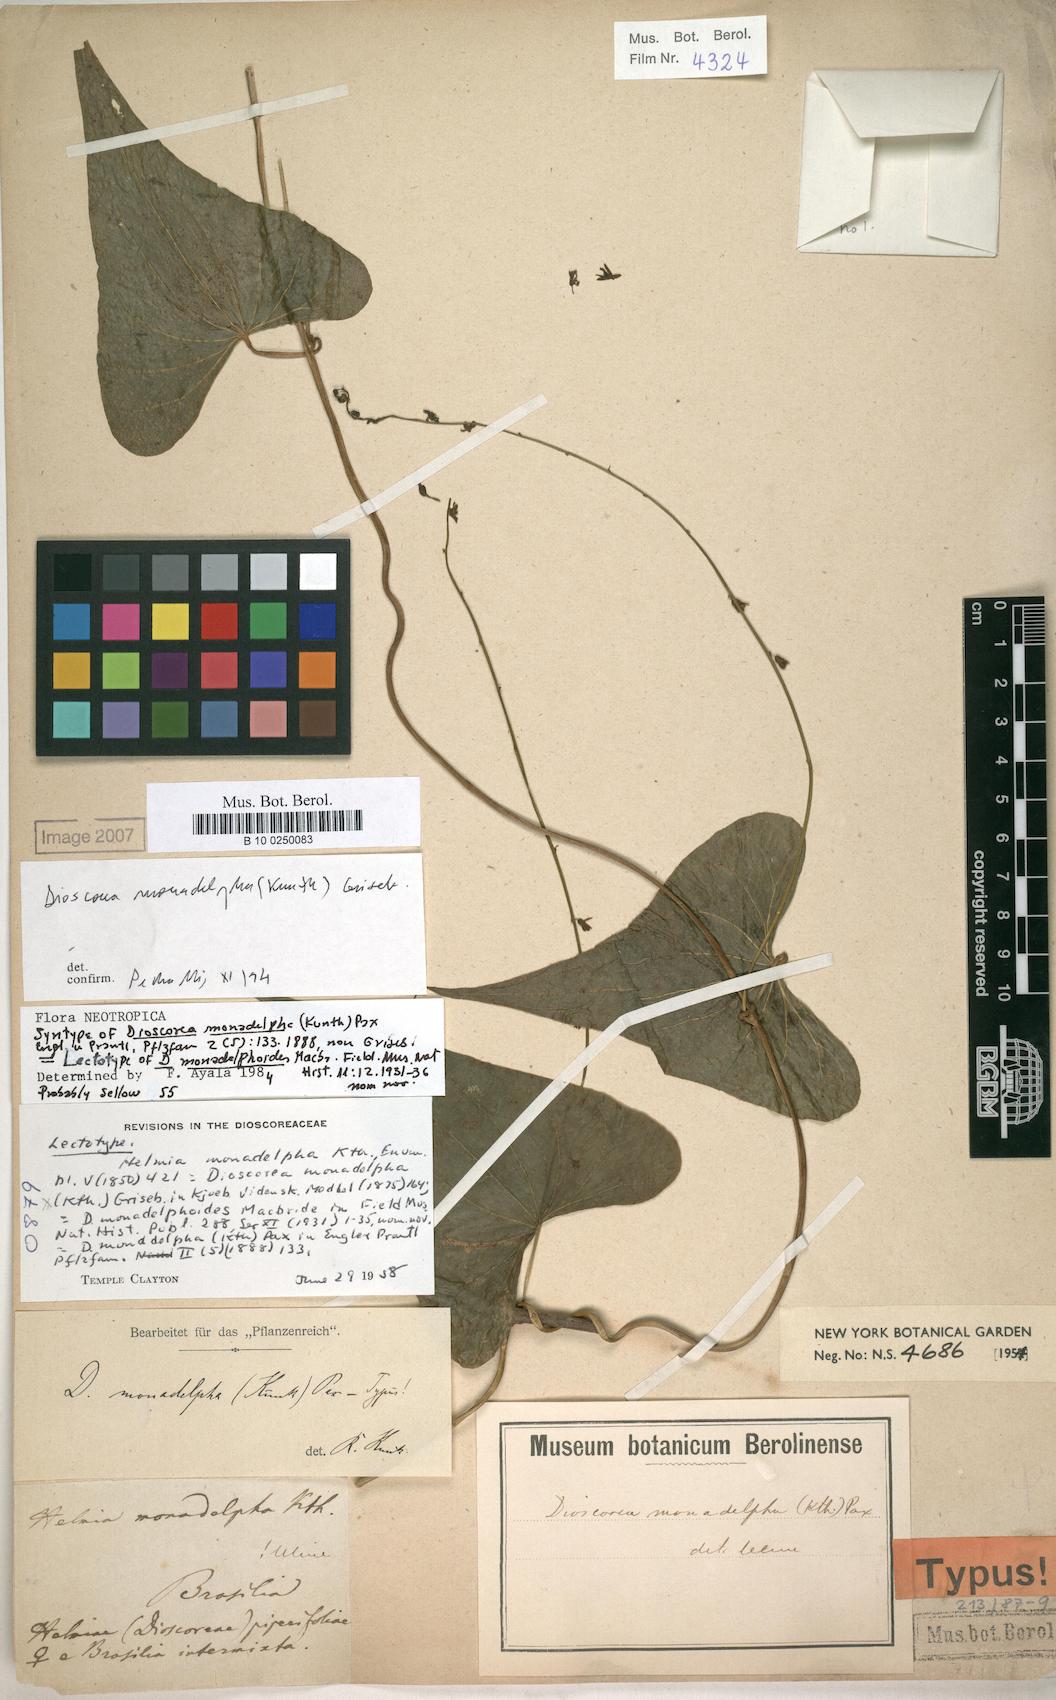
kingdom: Plantae
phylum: Tracheophyta
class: Liliopsida
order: Dioscoreales
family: Dioscoreaceae
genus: Dioscorea
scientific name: Dioscorea monadelpha
